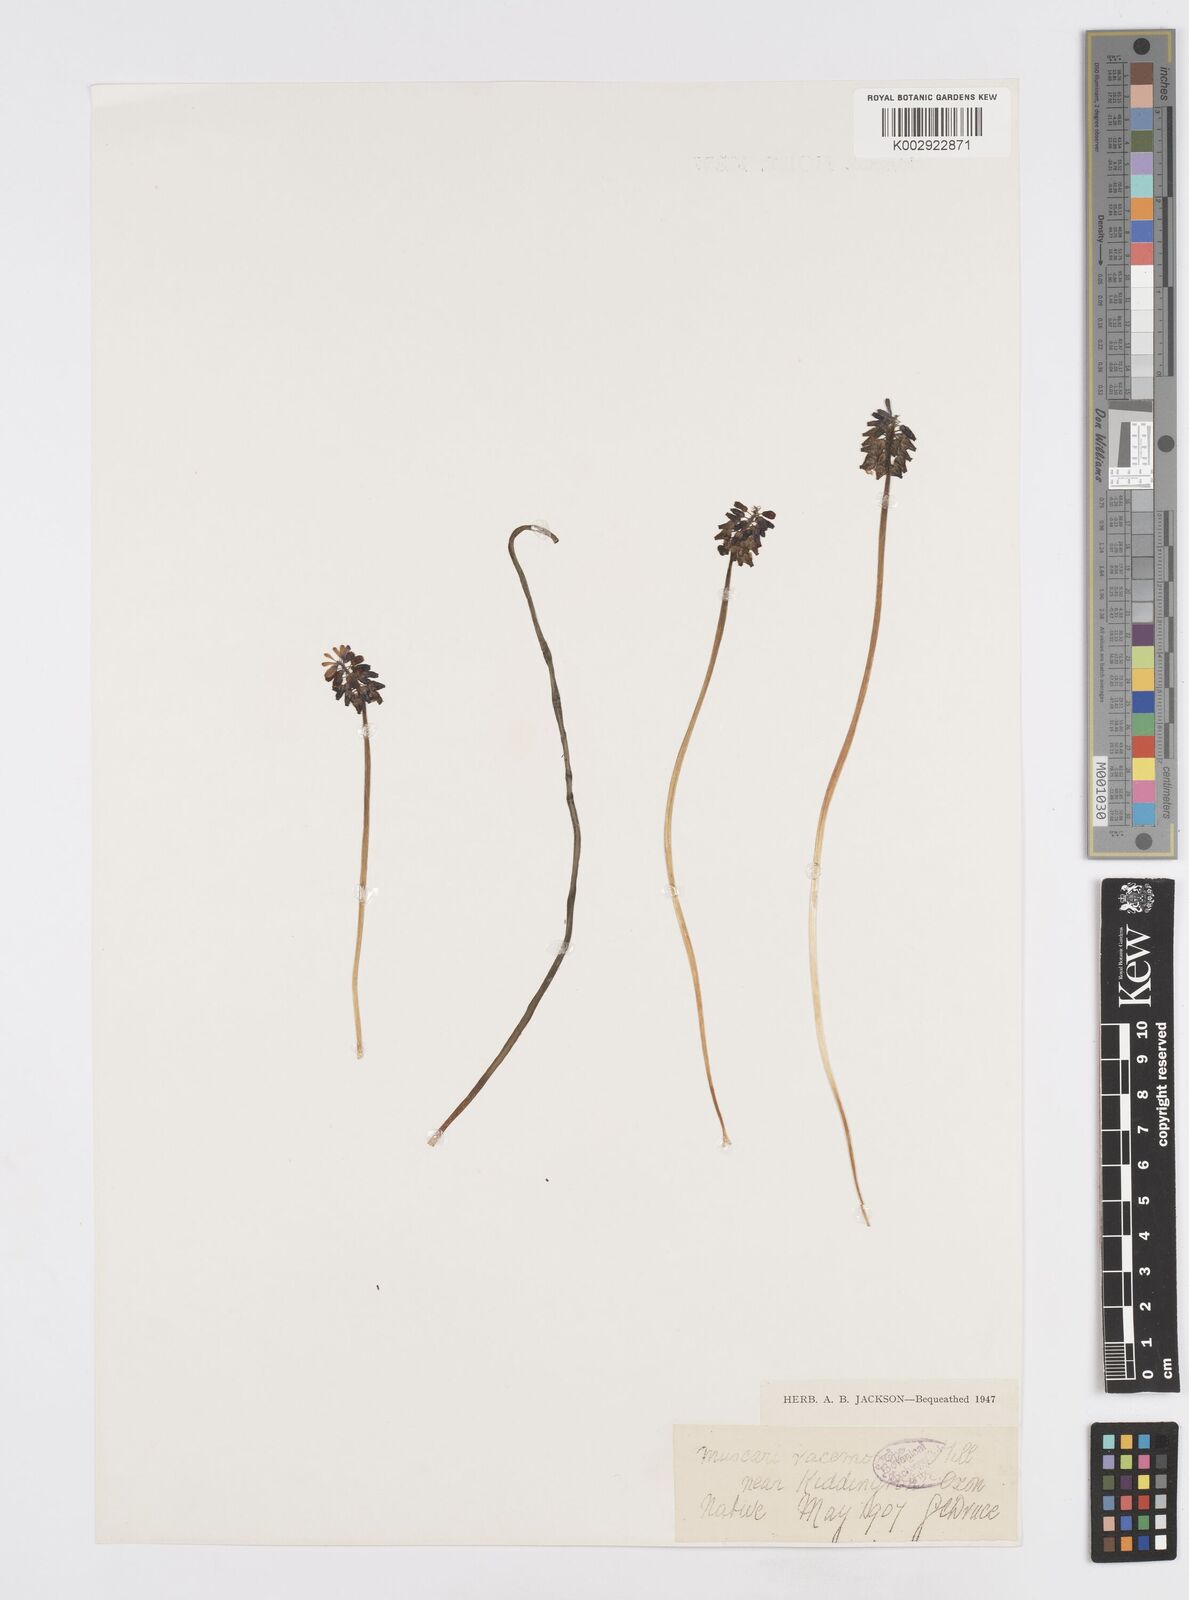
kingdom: Plantae
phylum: Tracheophyta
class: Liliopsida
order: Asparagales
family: Asparagaceae
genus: Muscari
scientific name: Muscari neglectum
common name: Grape-hyacinth
